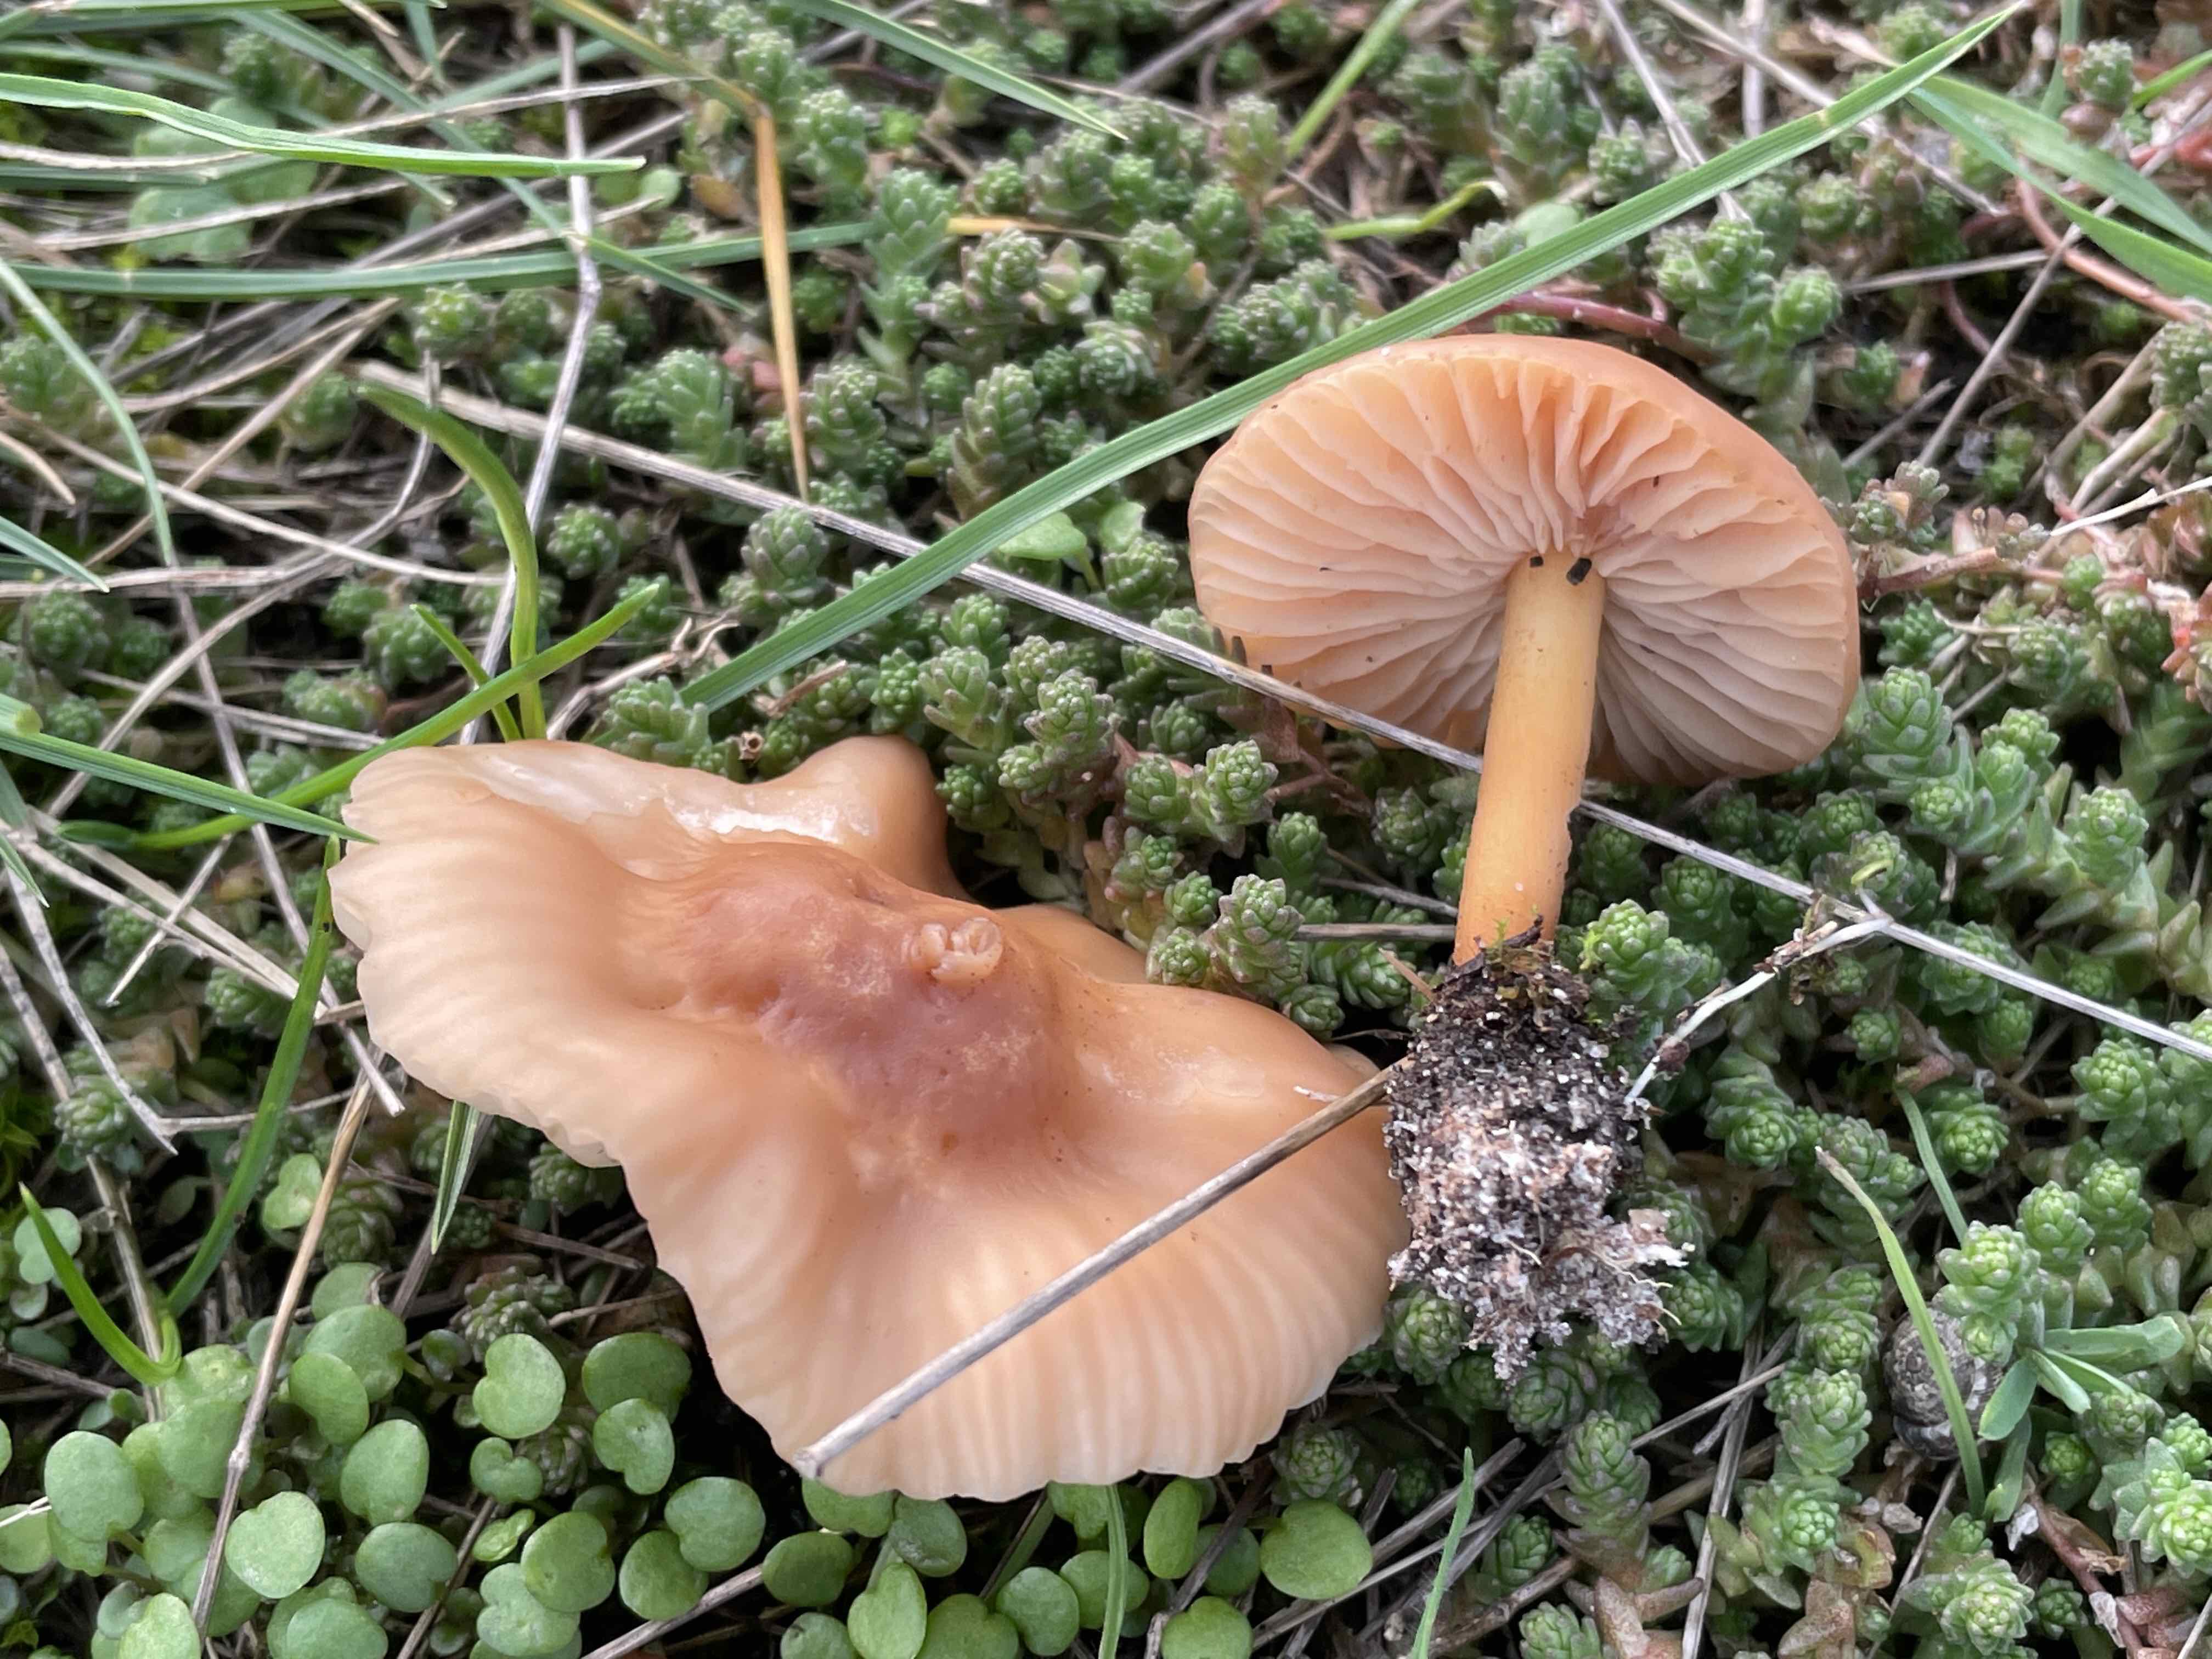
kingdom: Fungi
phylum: Basidiomycota
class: Agaricomycetes
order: Agaricales
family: Marasmiaceae
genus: Marasmius
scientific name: Marasmius oreades
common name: elledans-bruskhat
